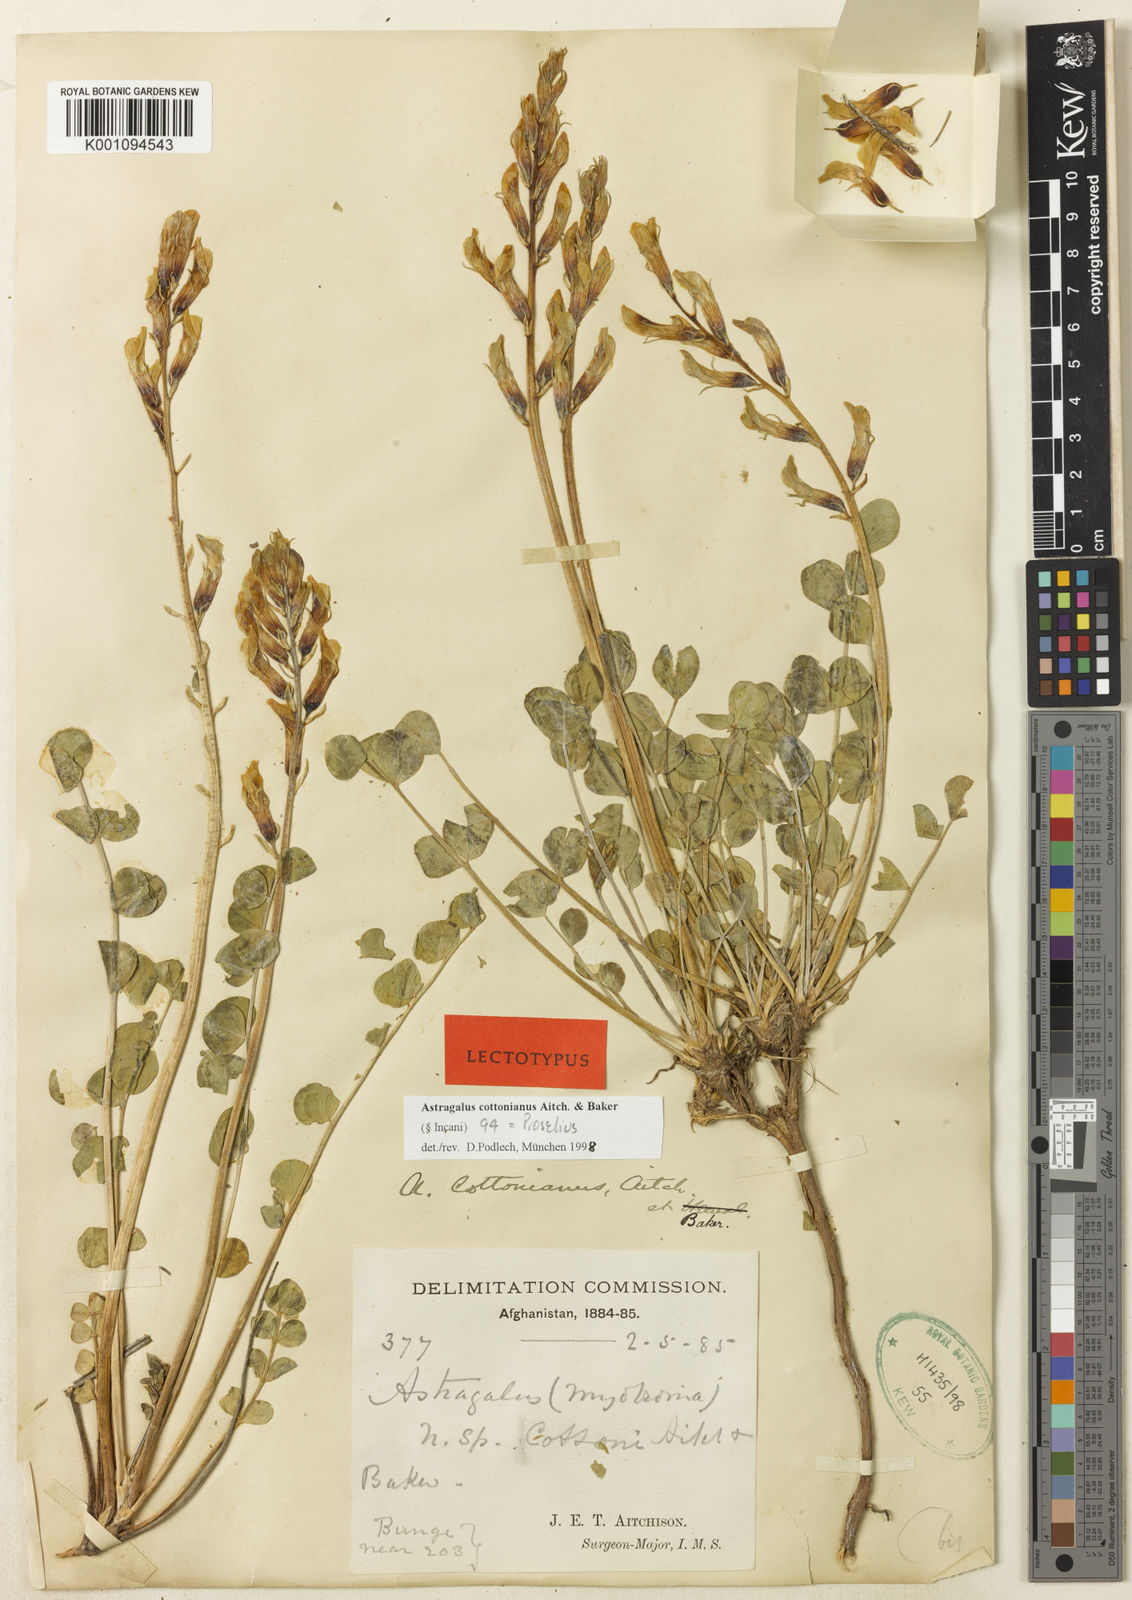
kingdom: Plantae
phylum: Tracheophyta
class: Magnoliopsida
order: Fabales
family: Fabaceae
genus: Astragalus
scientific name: Astragalus
